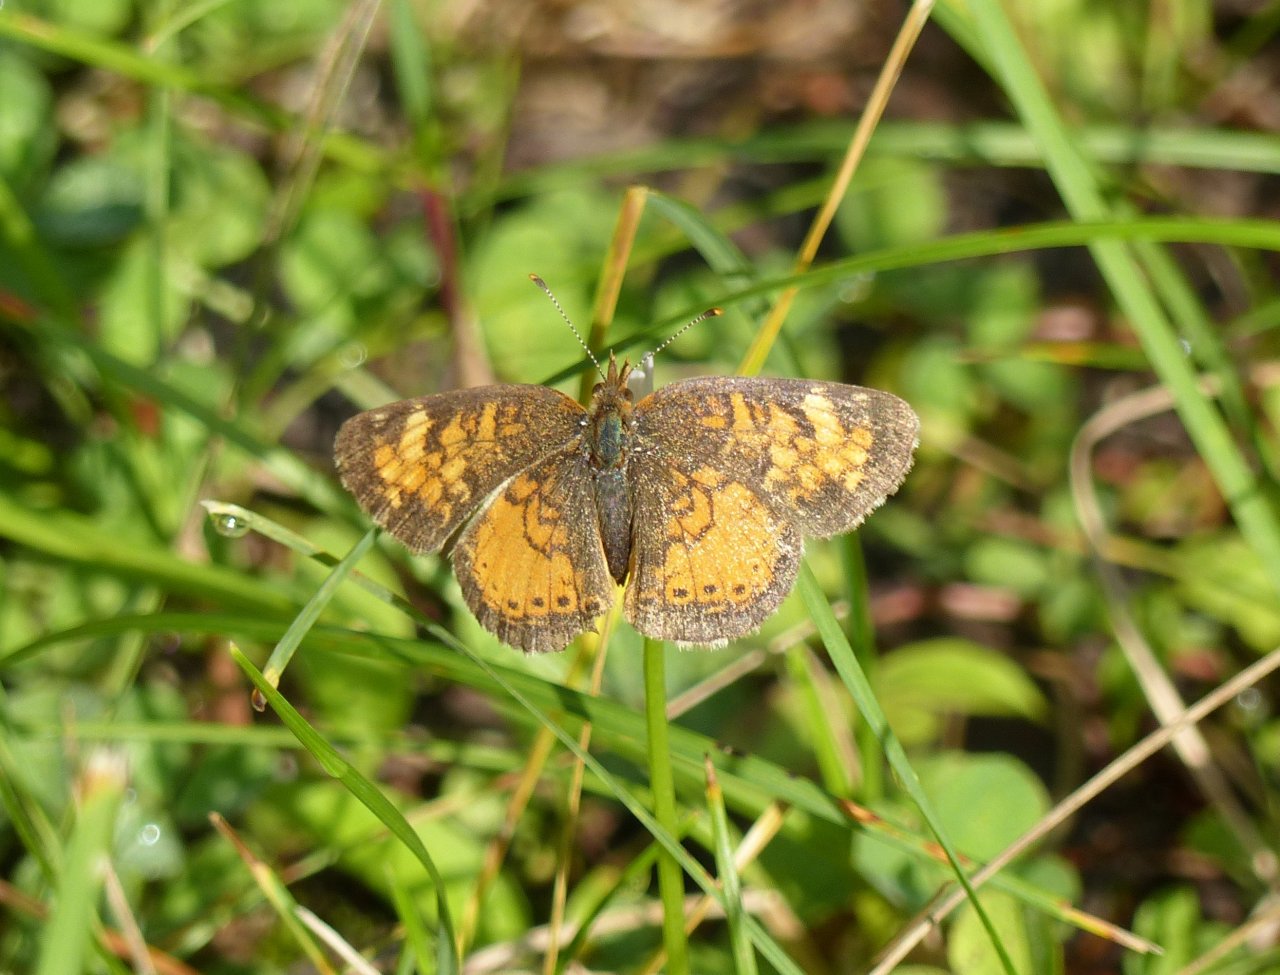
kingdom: Animalia
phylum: Arthropoda
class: Insecta
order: Lepidoptera
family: Nymphalidae
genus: Phyciodes
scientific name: Phyciodes tharos
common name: Northern Crescent
